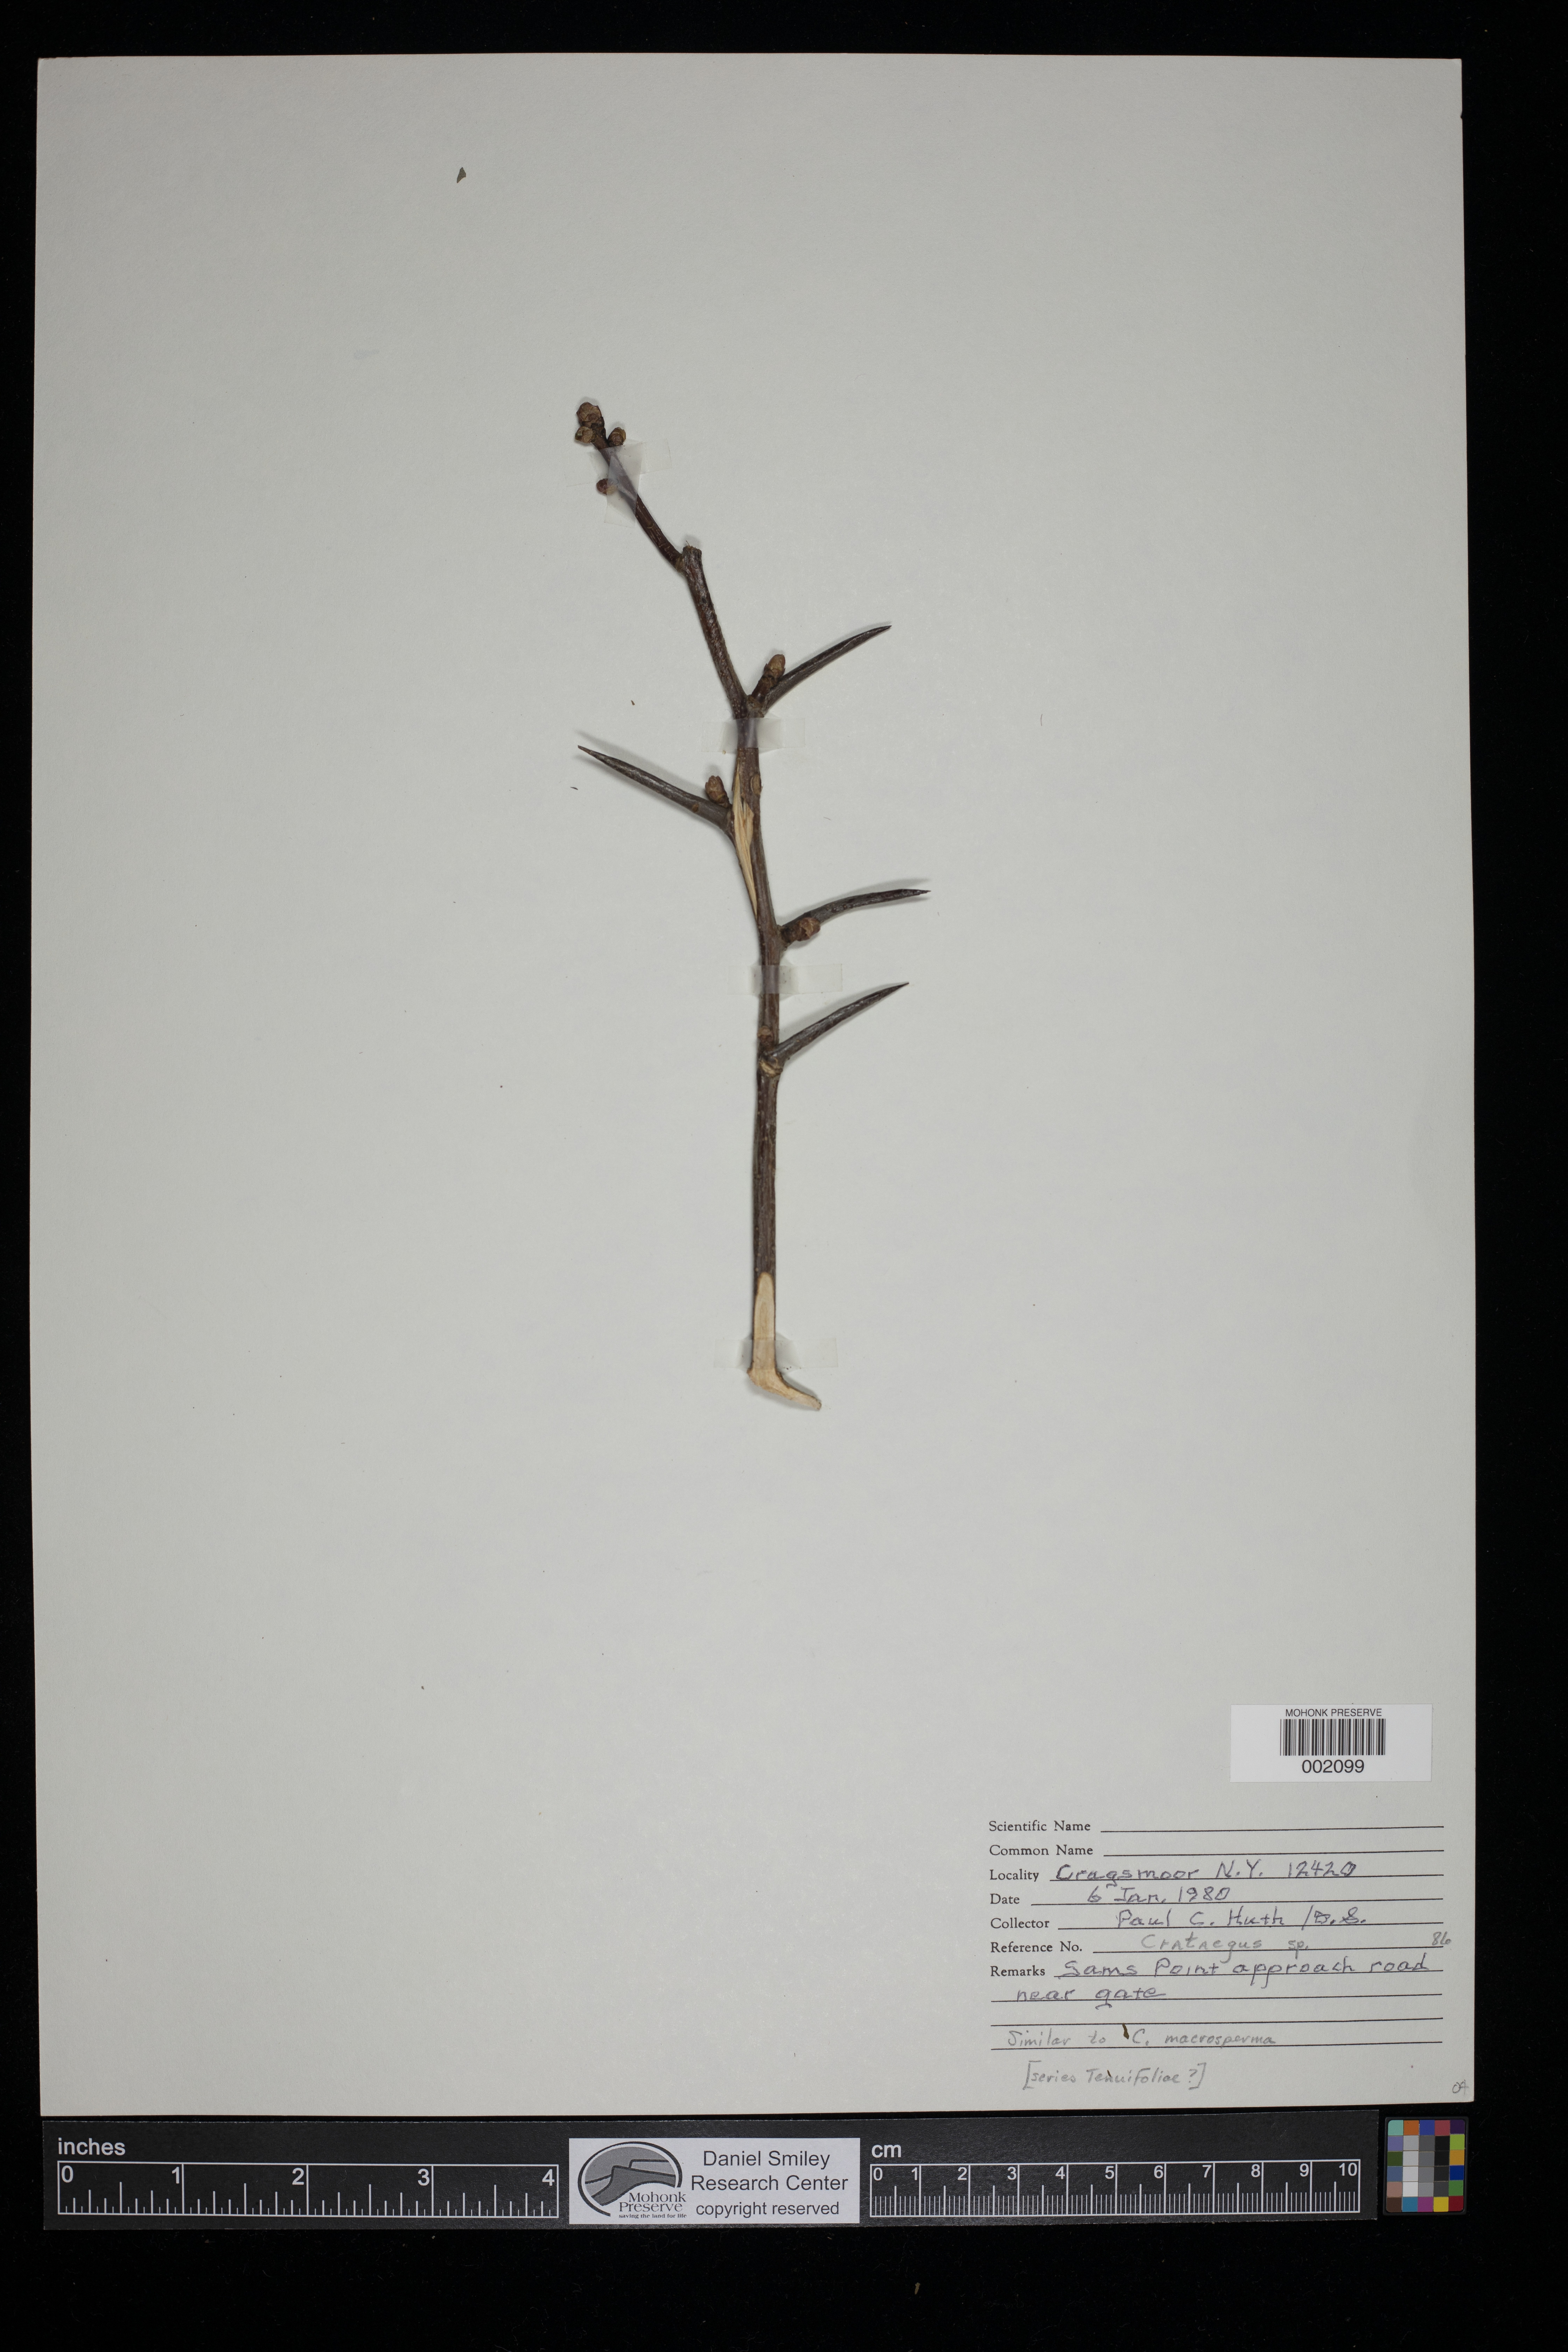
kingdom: Plantae
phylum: Tracheophyta
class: Magnoliopsida
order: Rosales
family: Rosaceae
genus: Crataegus
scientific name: Crataegus macrosperma
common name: Variable hawthorn
